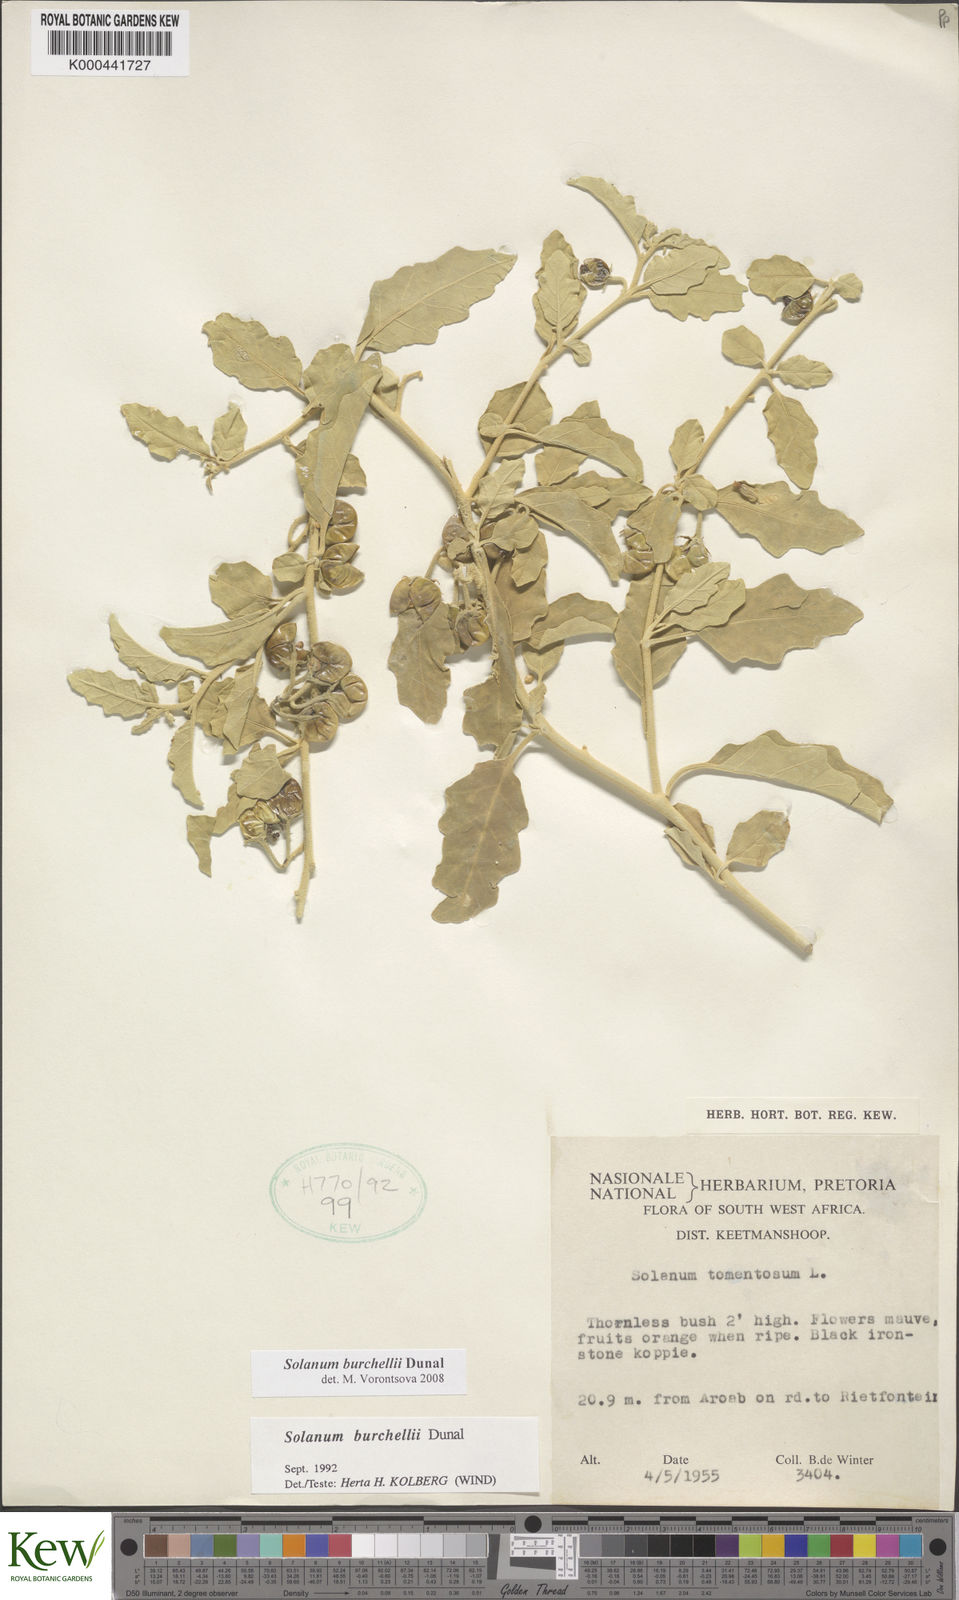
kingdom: Plantae
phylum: Tracheophyta
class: Magnoliopsida
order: Solanales
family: Solanaceae
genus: Solanum
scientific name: Solanum burchellii
